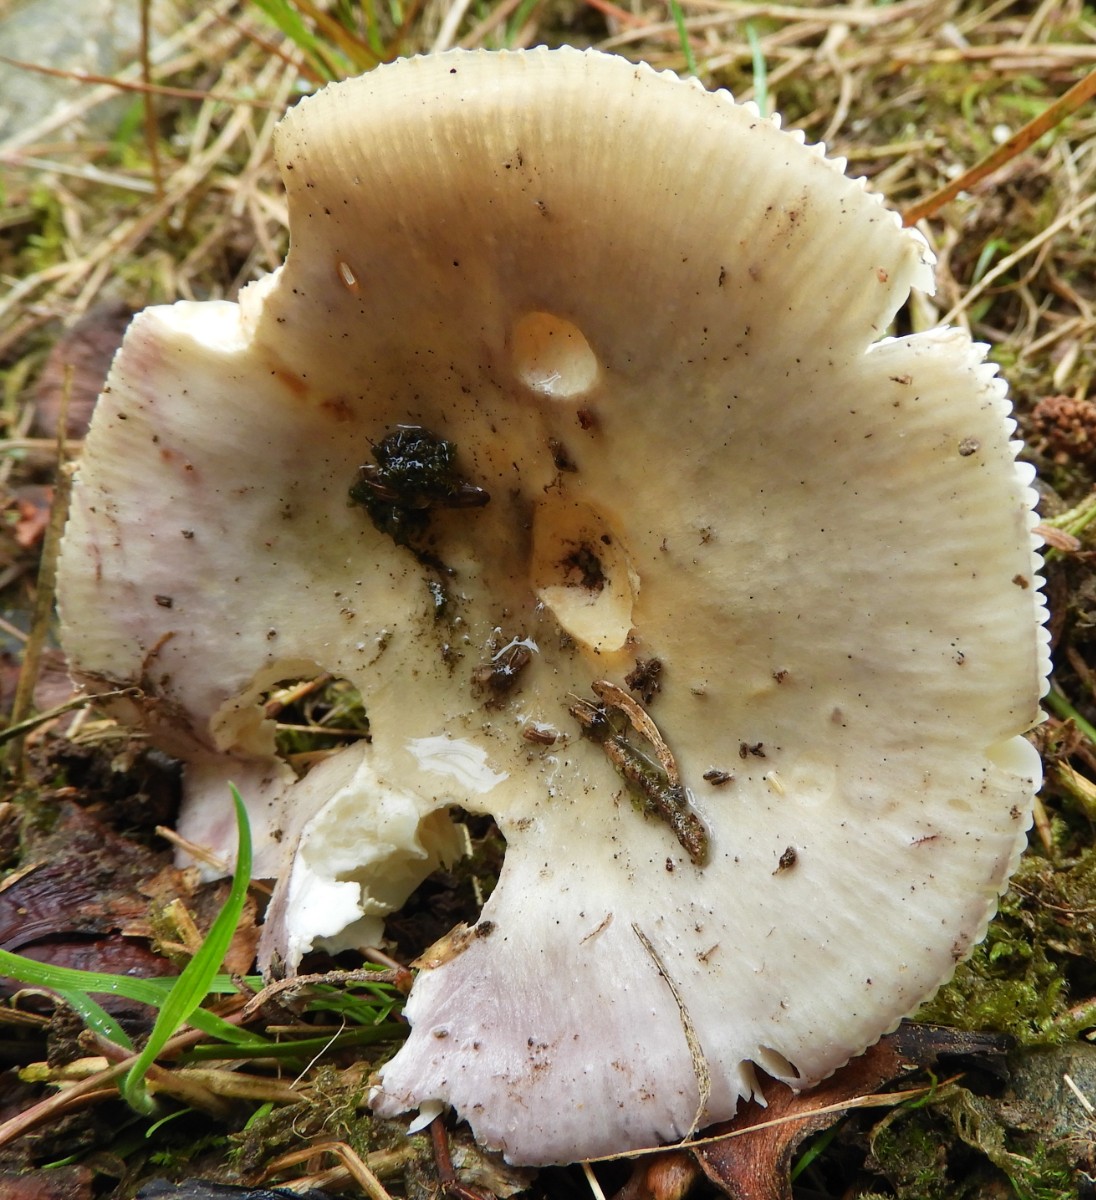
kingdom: Fungi
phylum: Basidiomycota
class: Agaricomycetes
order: Russulales
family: Russulaceae
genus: Russula
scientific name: Russula
